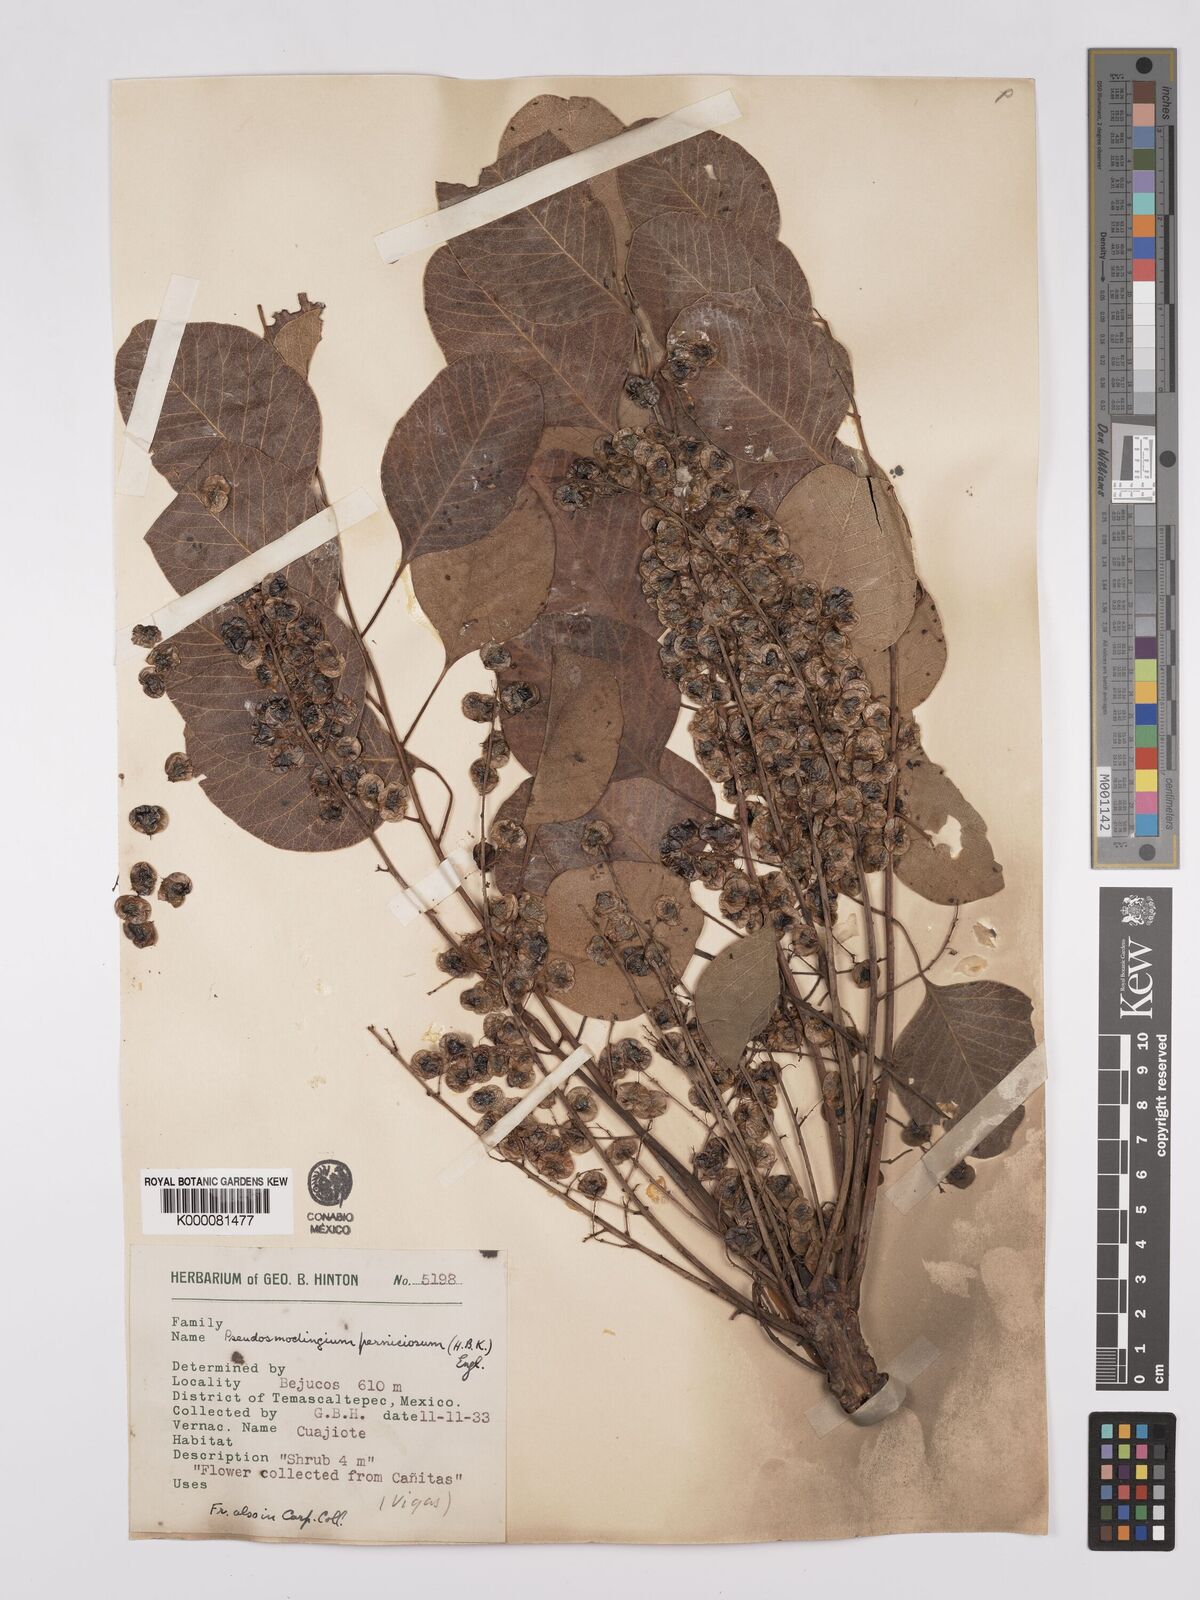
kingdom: Plantae
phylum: Tracheophyta
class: Magnoliopsida
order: Sapindales
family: Anacardiaceae
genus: Pseudosmodingium
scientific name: Pseudosmodingium perniciosum
